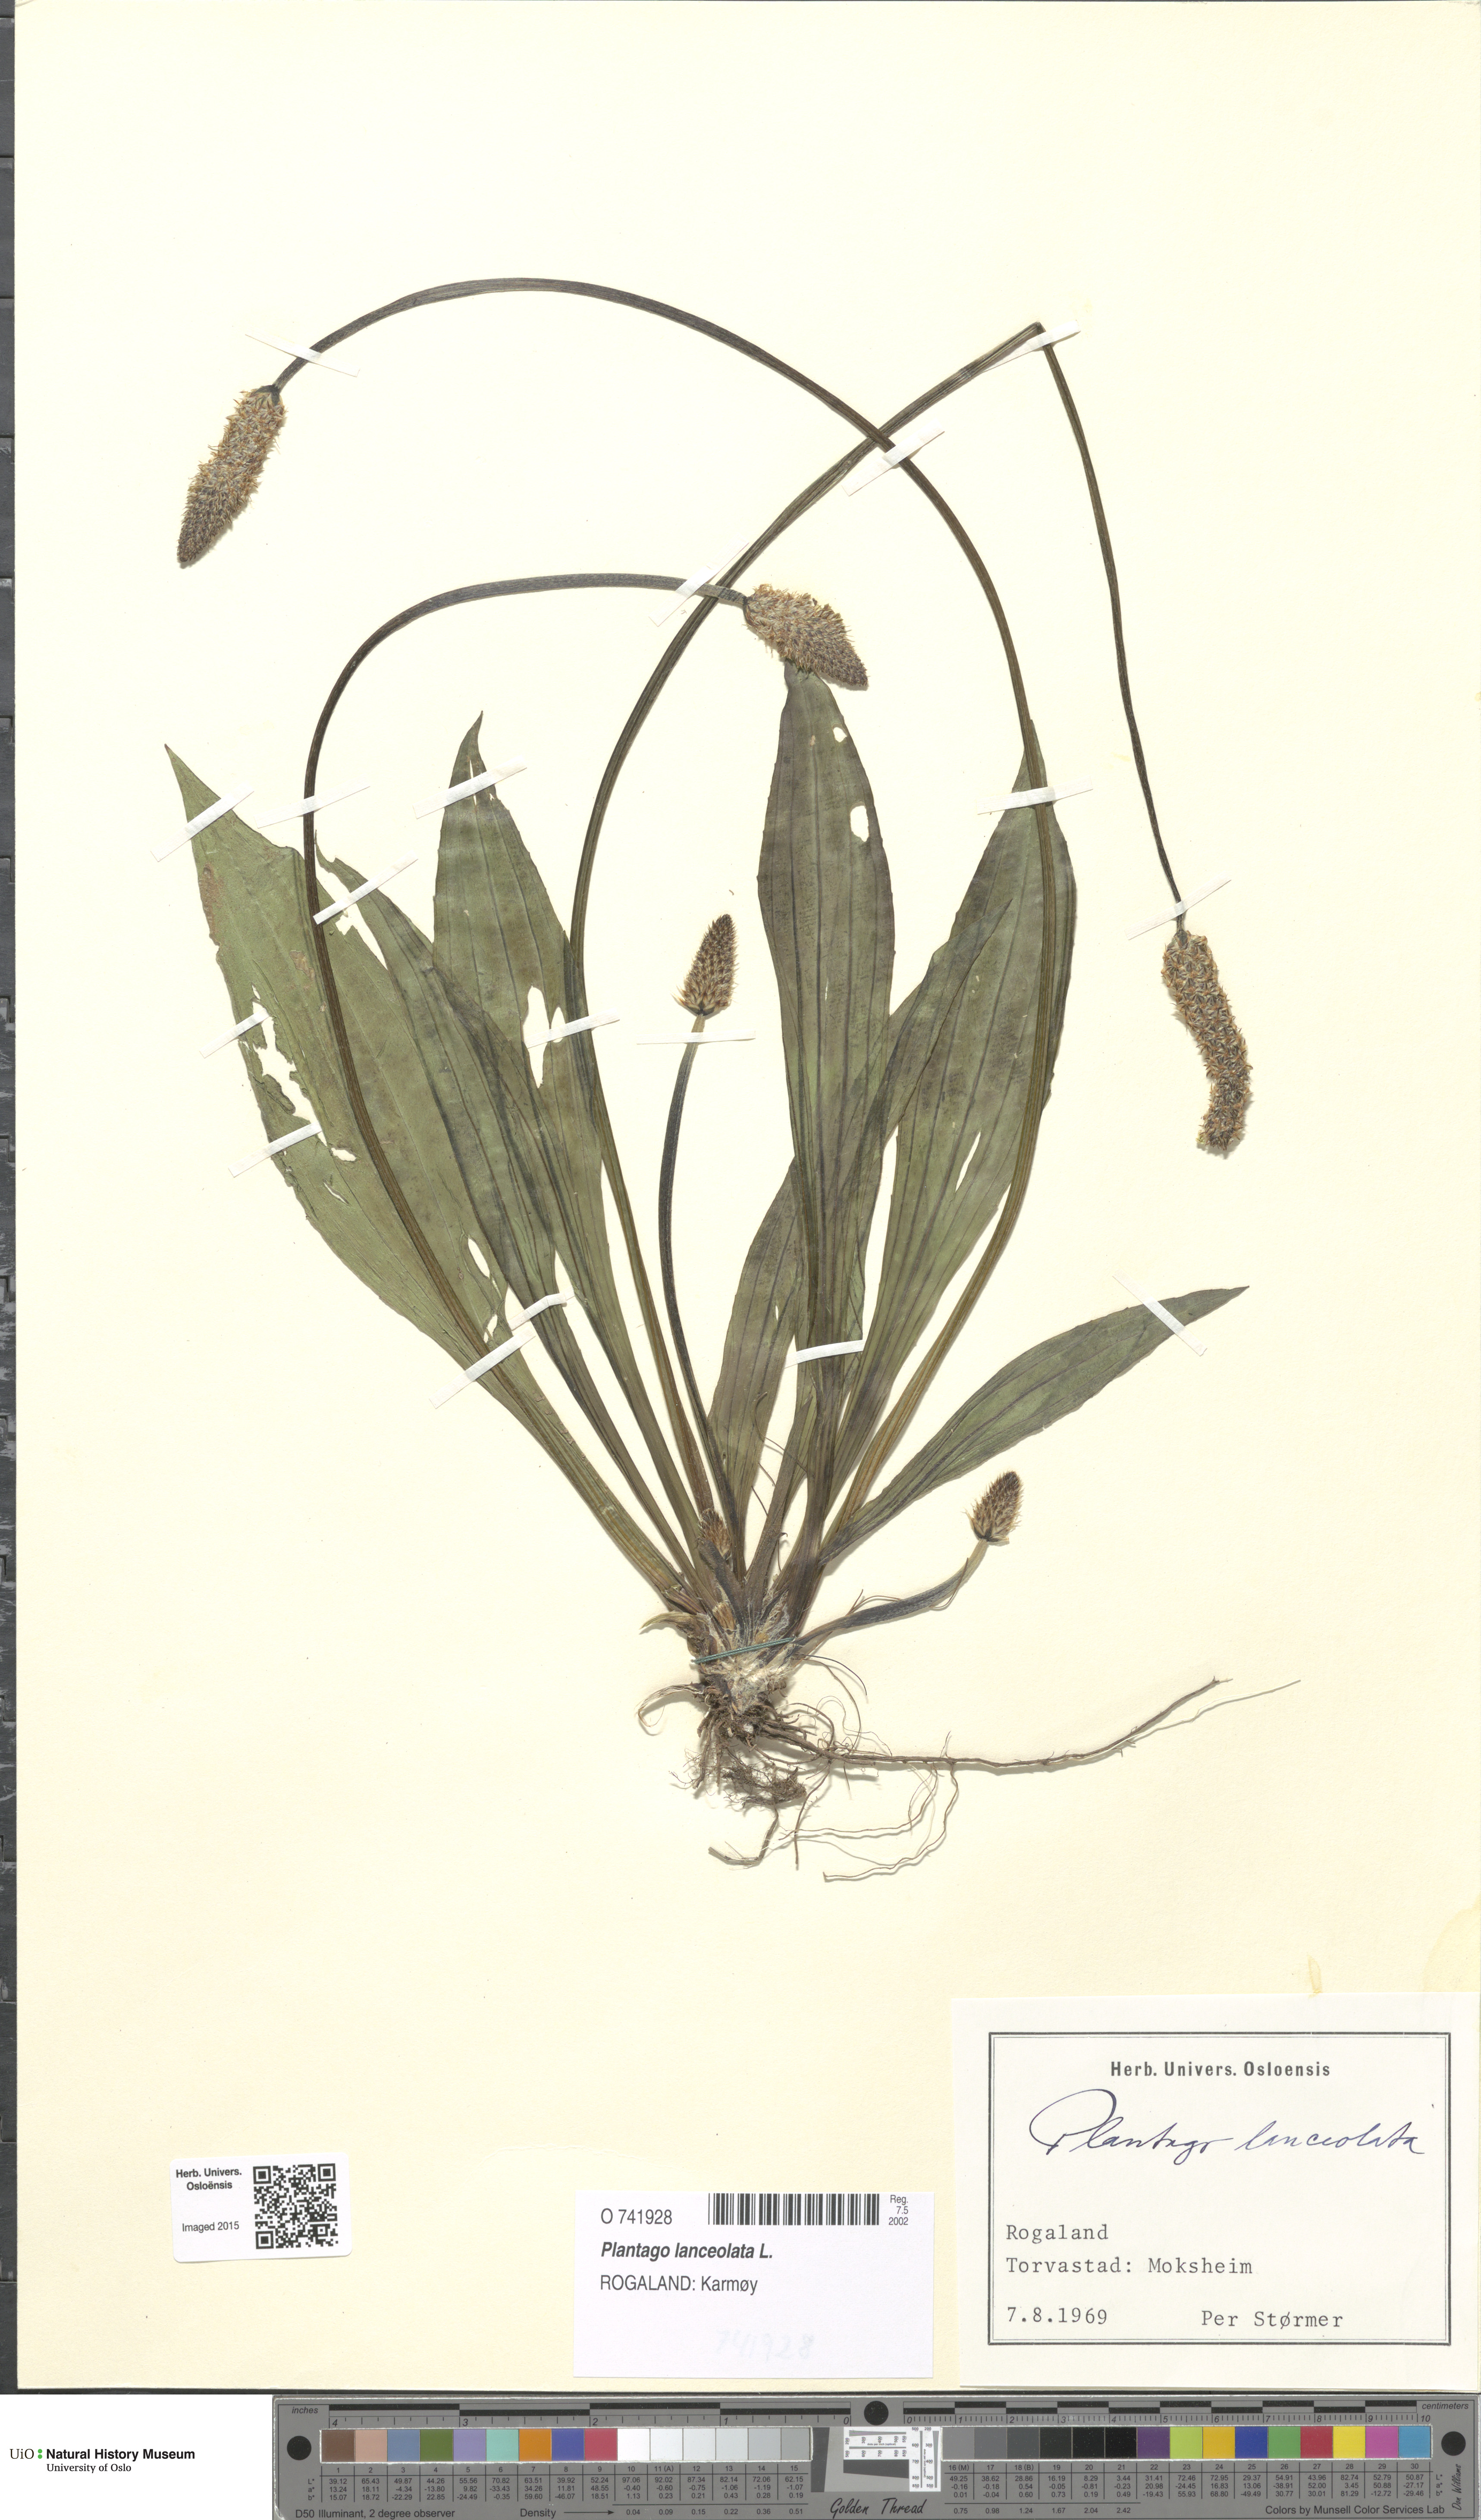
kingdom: Plantae
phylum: Tracheophyta
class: Magnoliopsida
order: Lamiales
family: Plantaginaceae
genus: Plantago
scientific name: Plantago lanceolata
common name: Ribwort plantain
